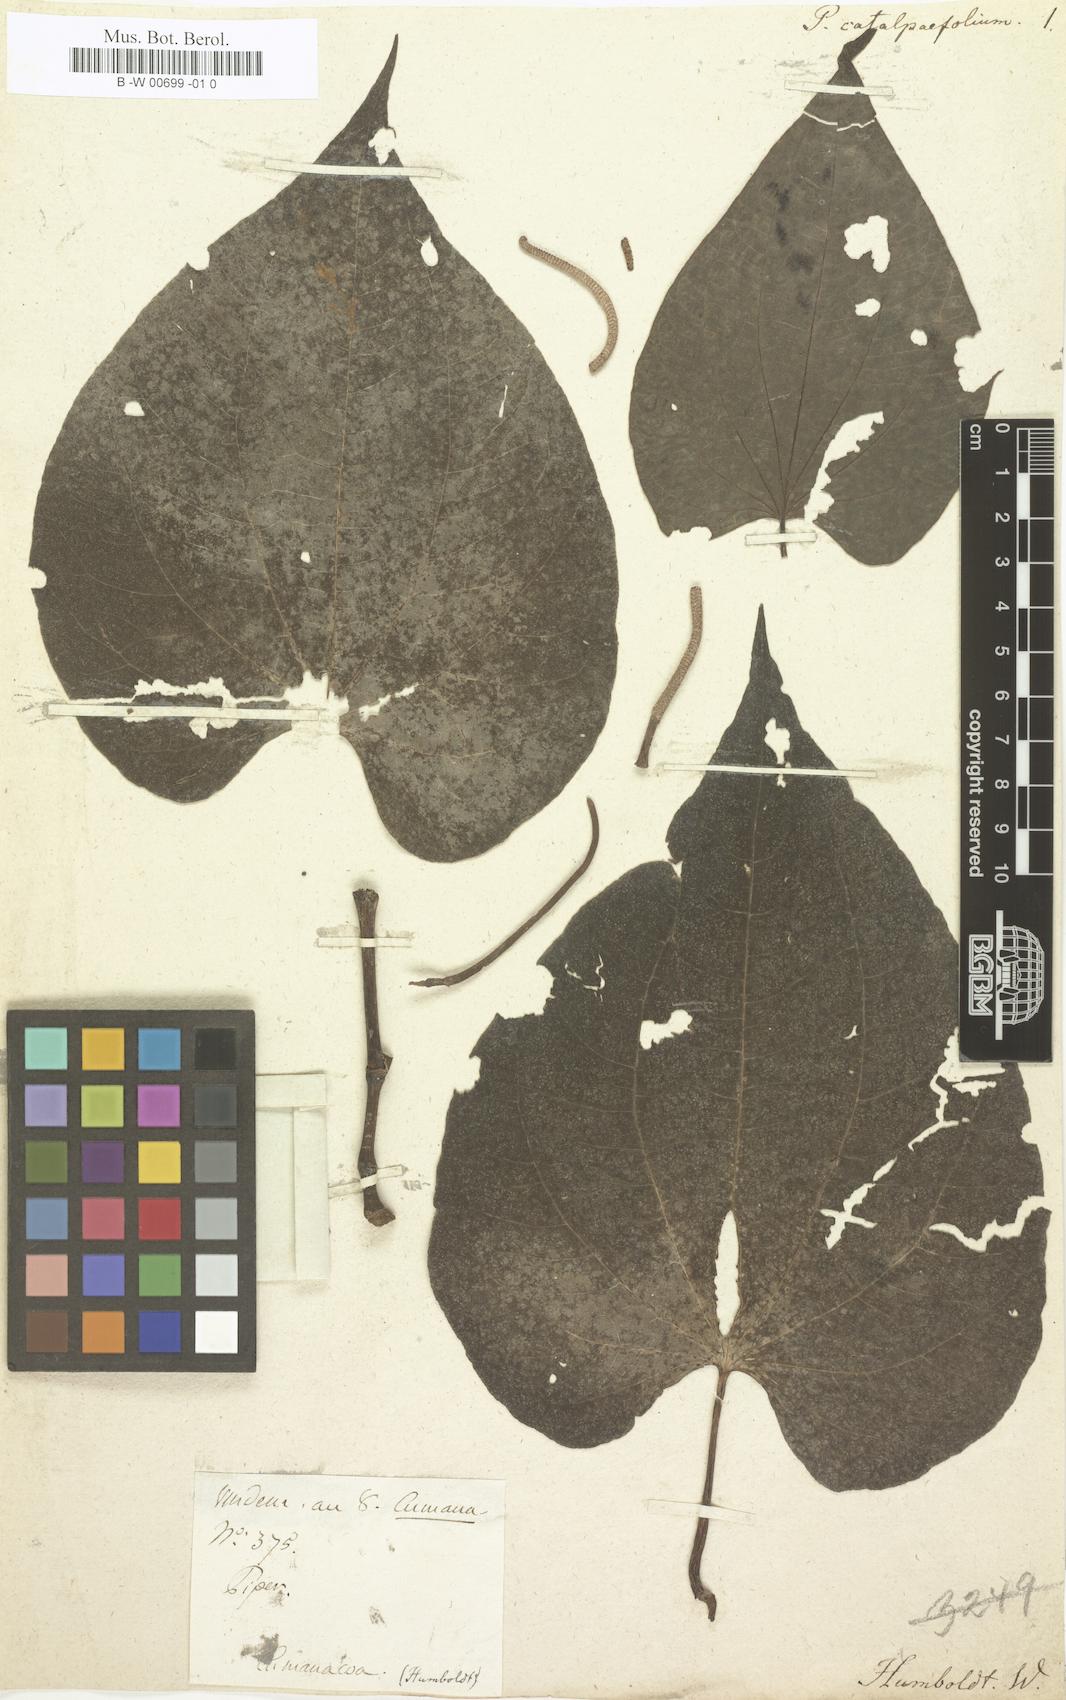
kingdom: Plantae
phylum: Tracheophyta
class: Magnoliopsida
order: Piperales
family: Piperaceae
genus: Piper
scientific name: Piper marginatum
